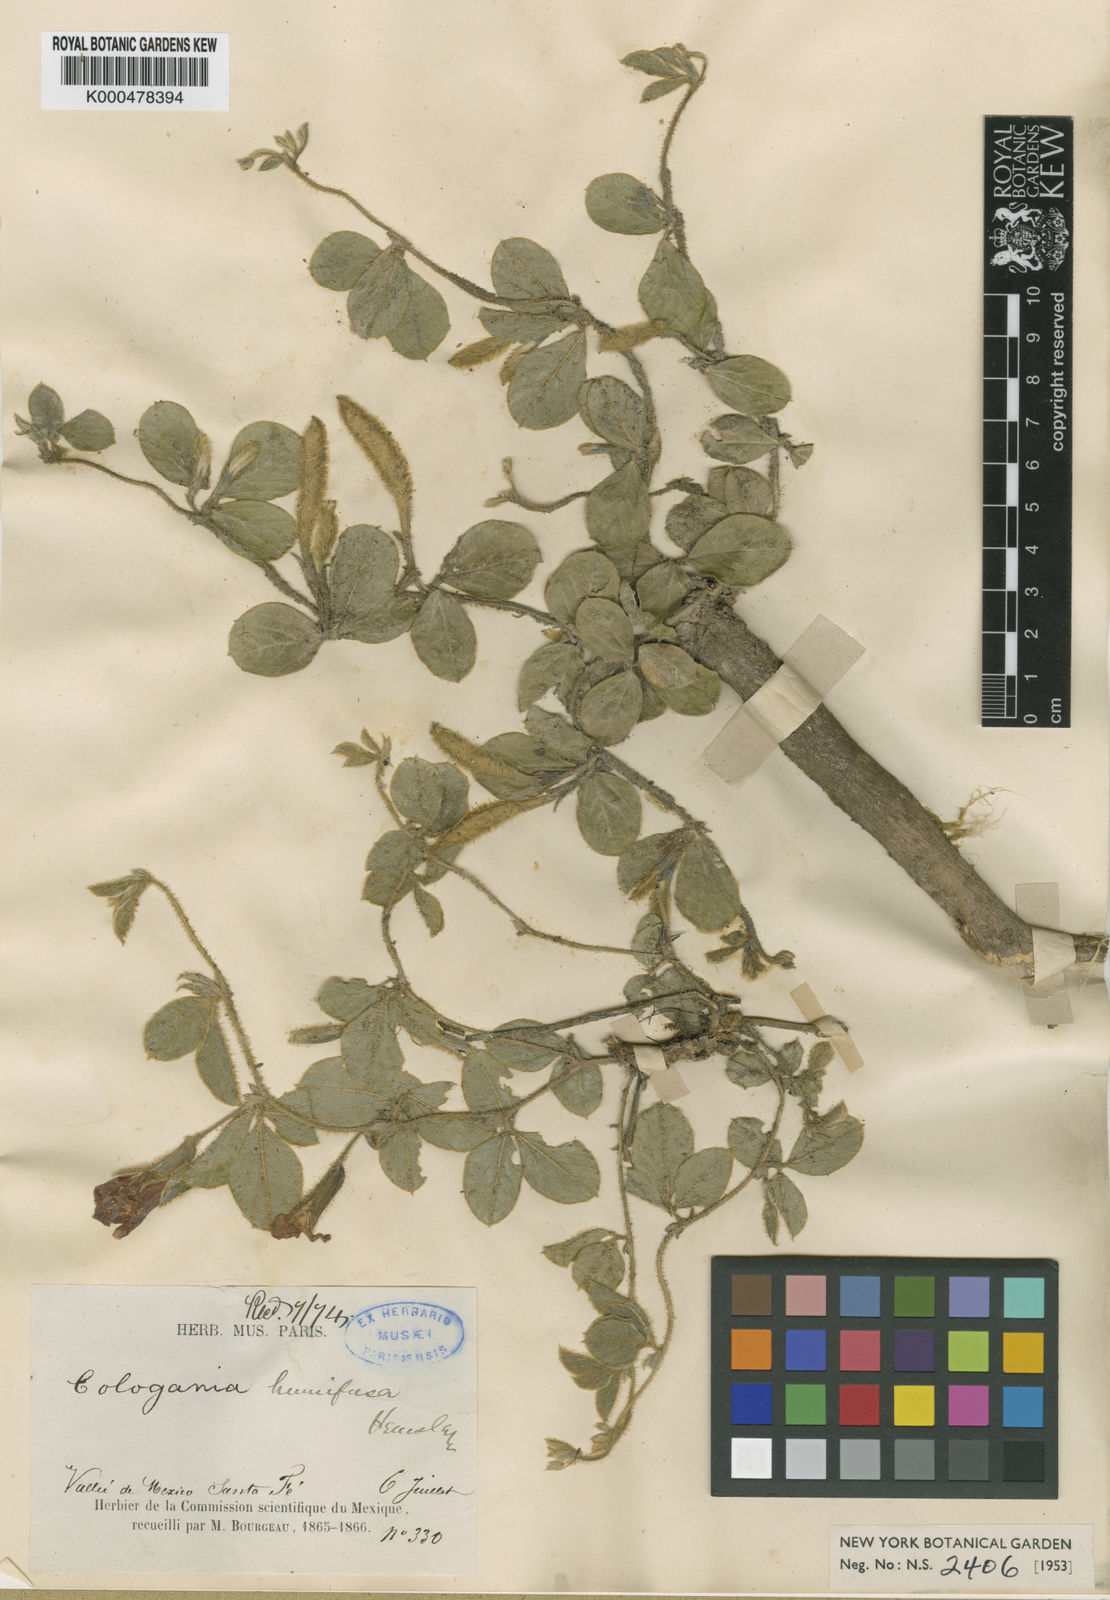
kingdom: Plantae
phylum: Tracheophyta
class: Magnoliopsida
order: Fabales
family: Fabaceae
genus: Cologania
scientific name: Cologania obovata
